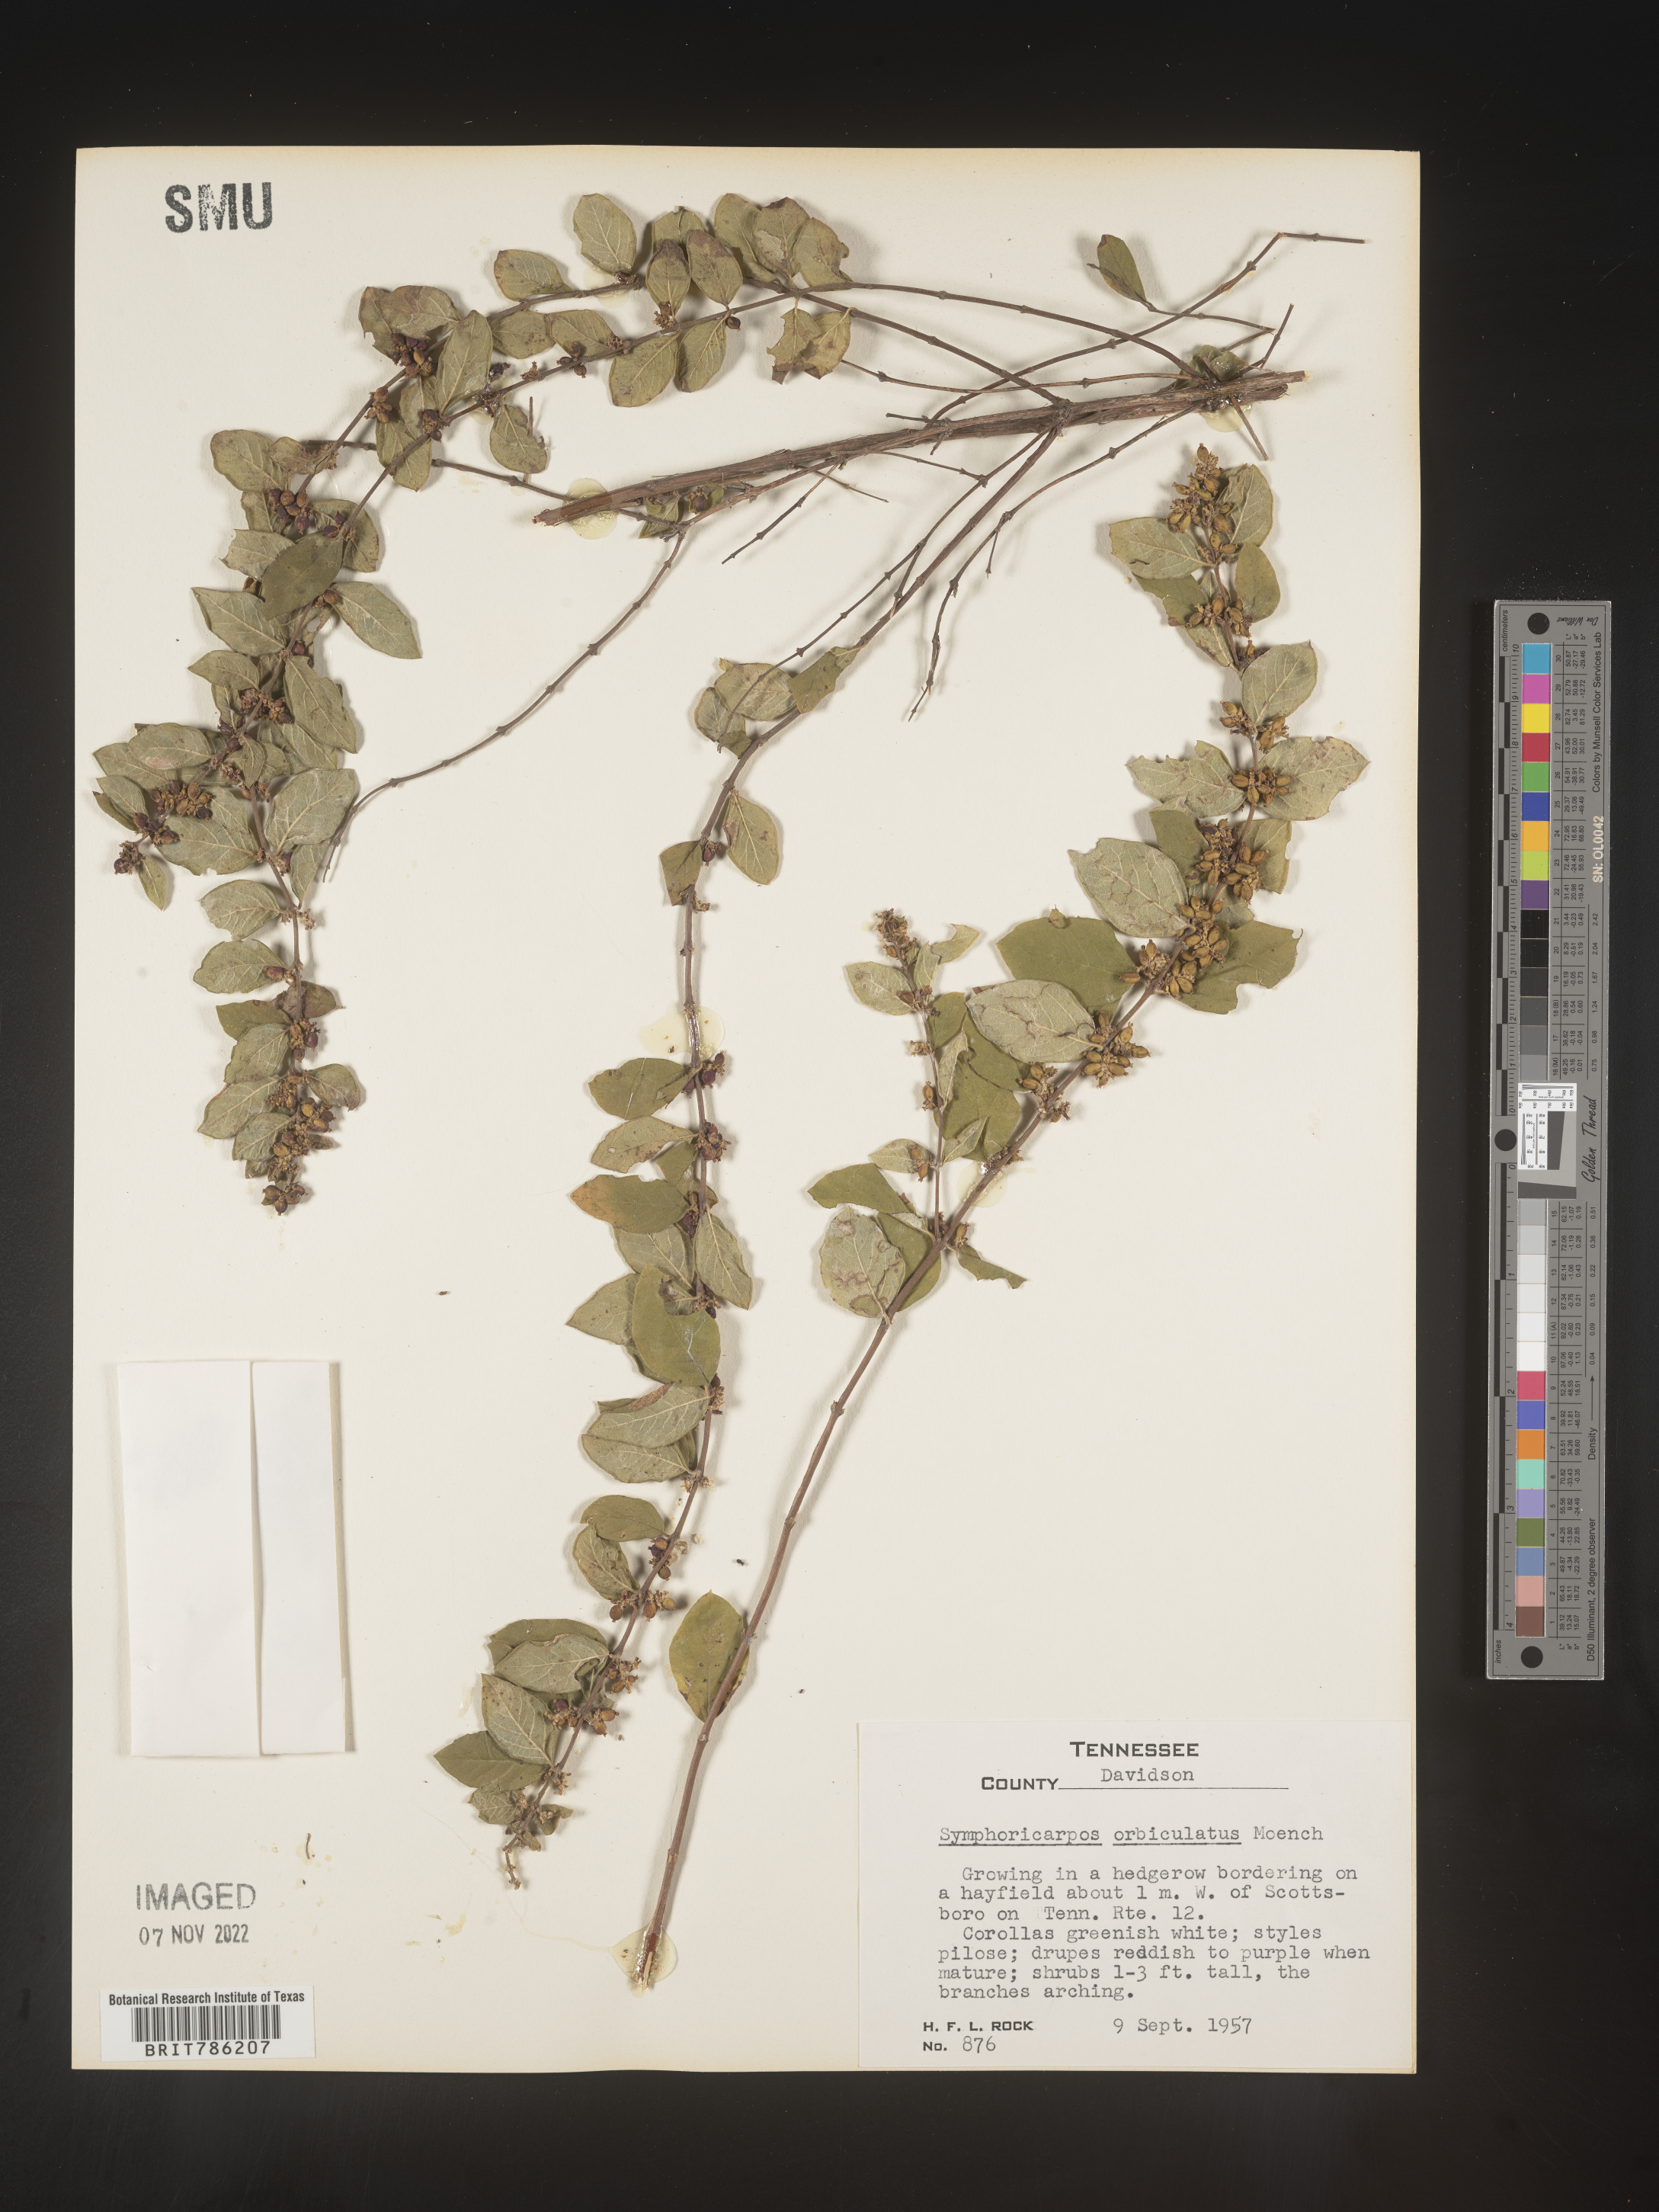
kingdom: Plantae
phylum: Tracheophyta
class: Magnoliopsida
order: Dipsacales
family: Caprifoliaceae
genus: Symphoricarpos
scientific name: Symphoricarpos orbiculatus
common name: Coralberry
